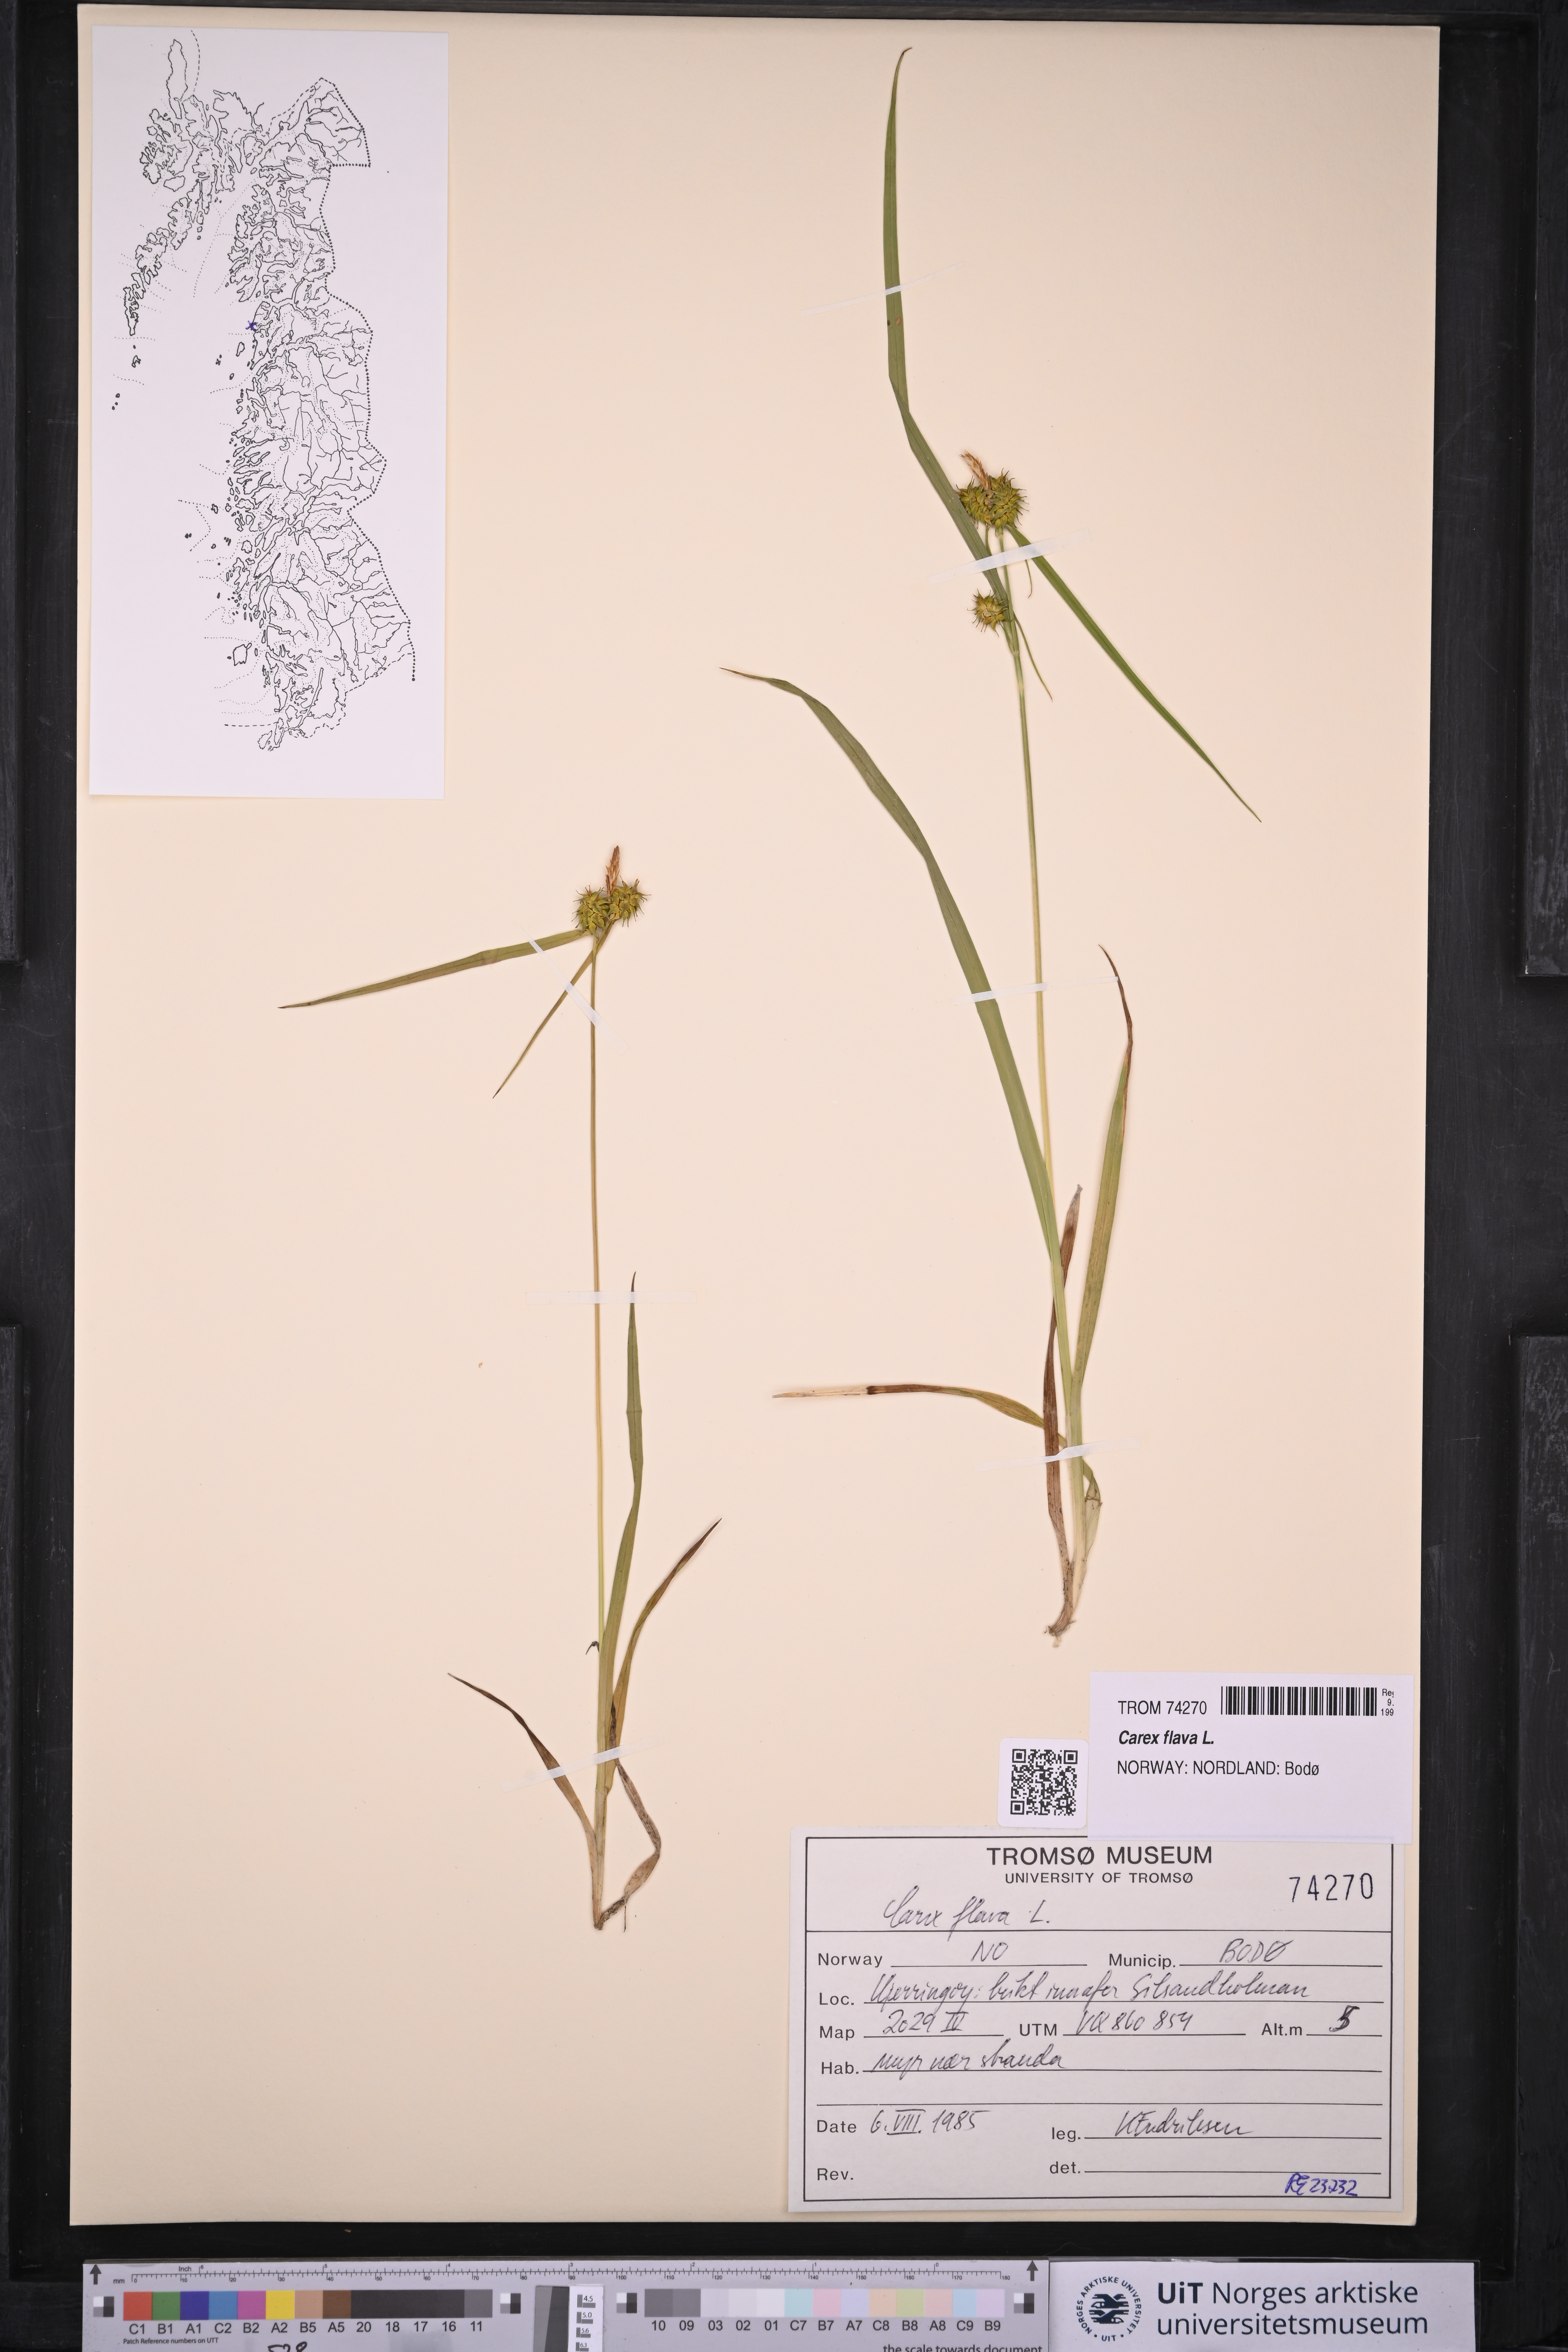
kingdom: Plantae
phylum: Tracheophyta
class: Liliopsida
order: Poales
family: Cyperaceae
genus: Carex
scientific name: Carex flava
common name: Large yellow-sedge
